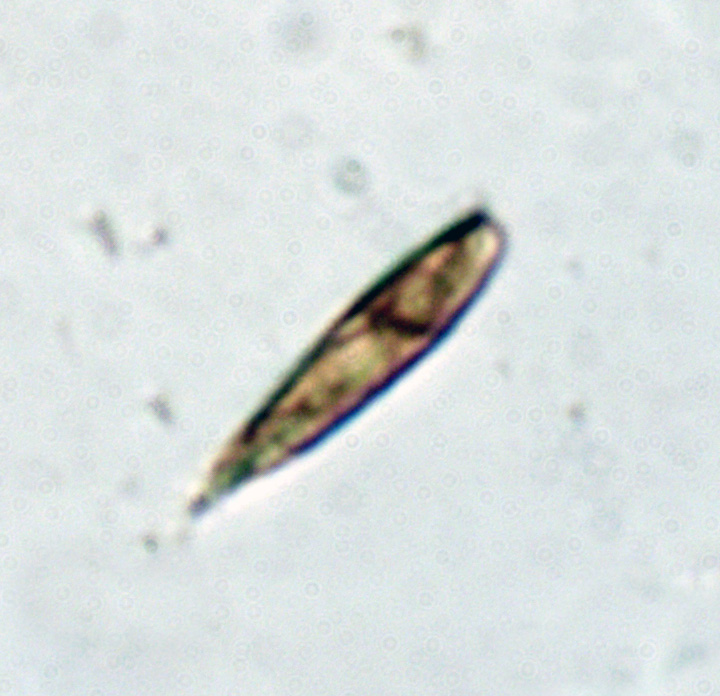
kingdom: Fungi
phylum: Ascomycota
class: Leotiomycetes
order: Helotiales
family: Helotiaceae
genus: Hymenoscyphus
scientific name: Hymenoscyphus
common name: stilkskive
